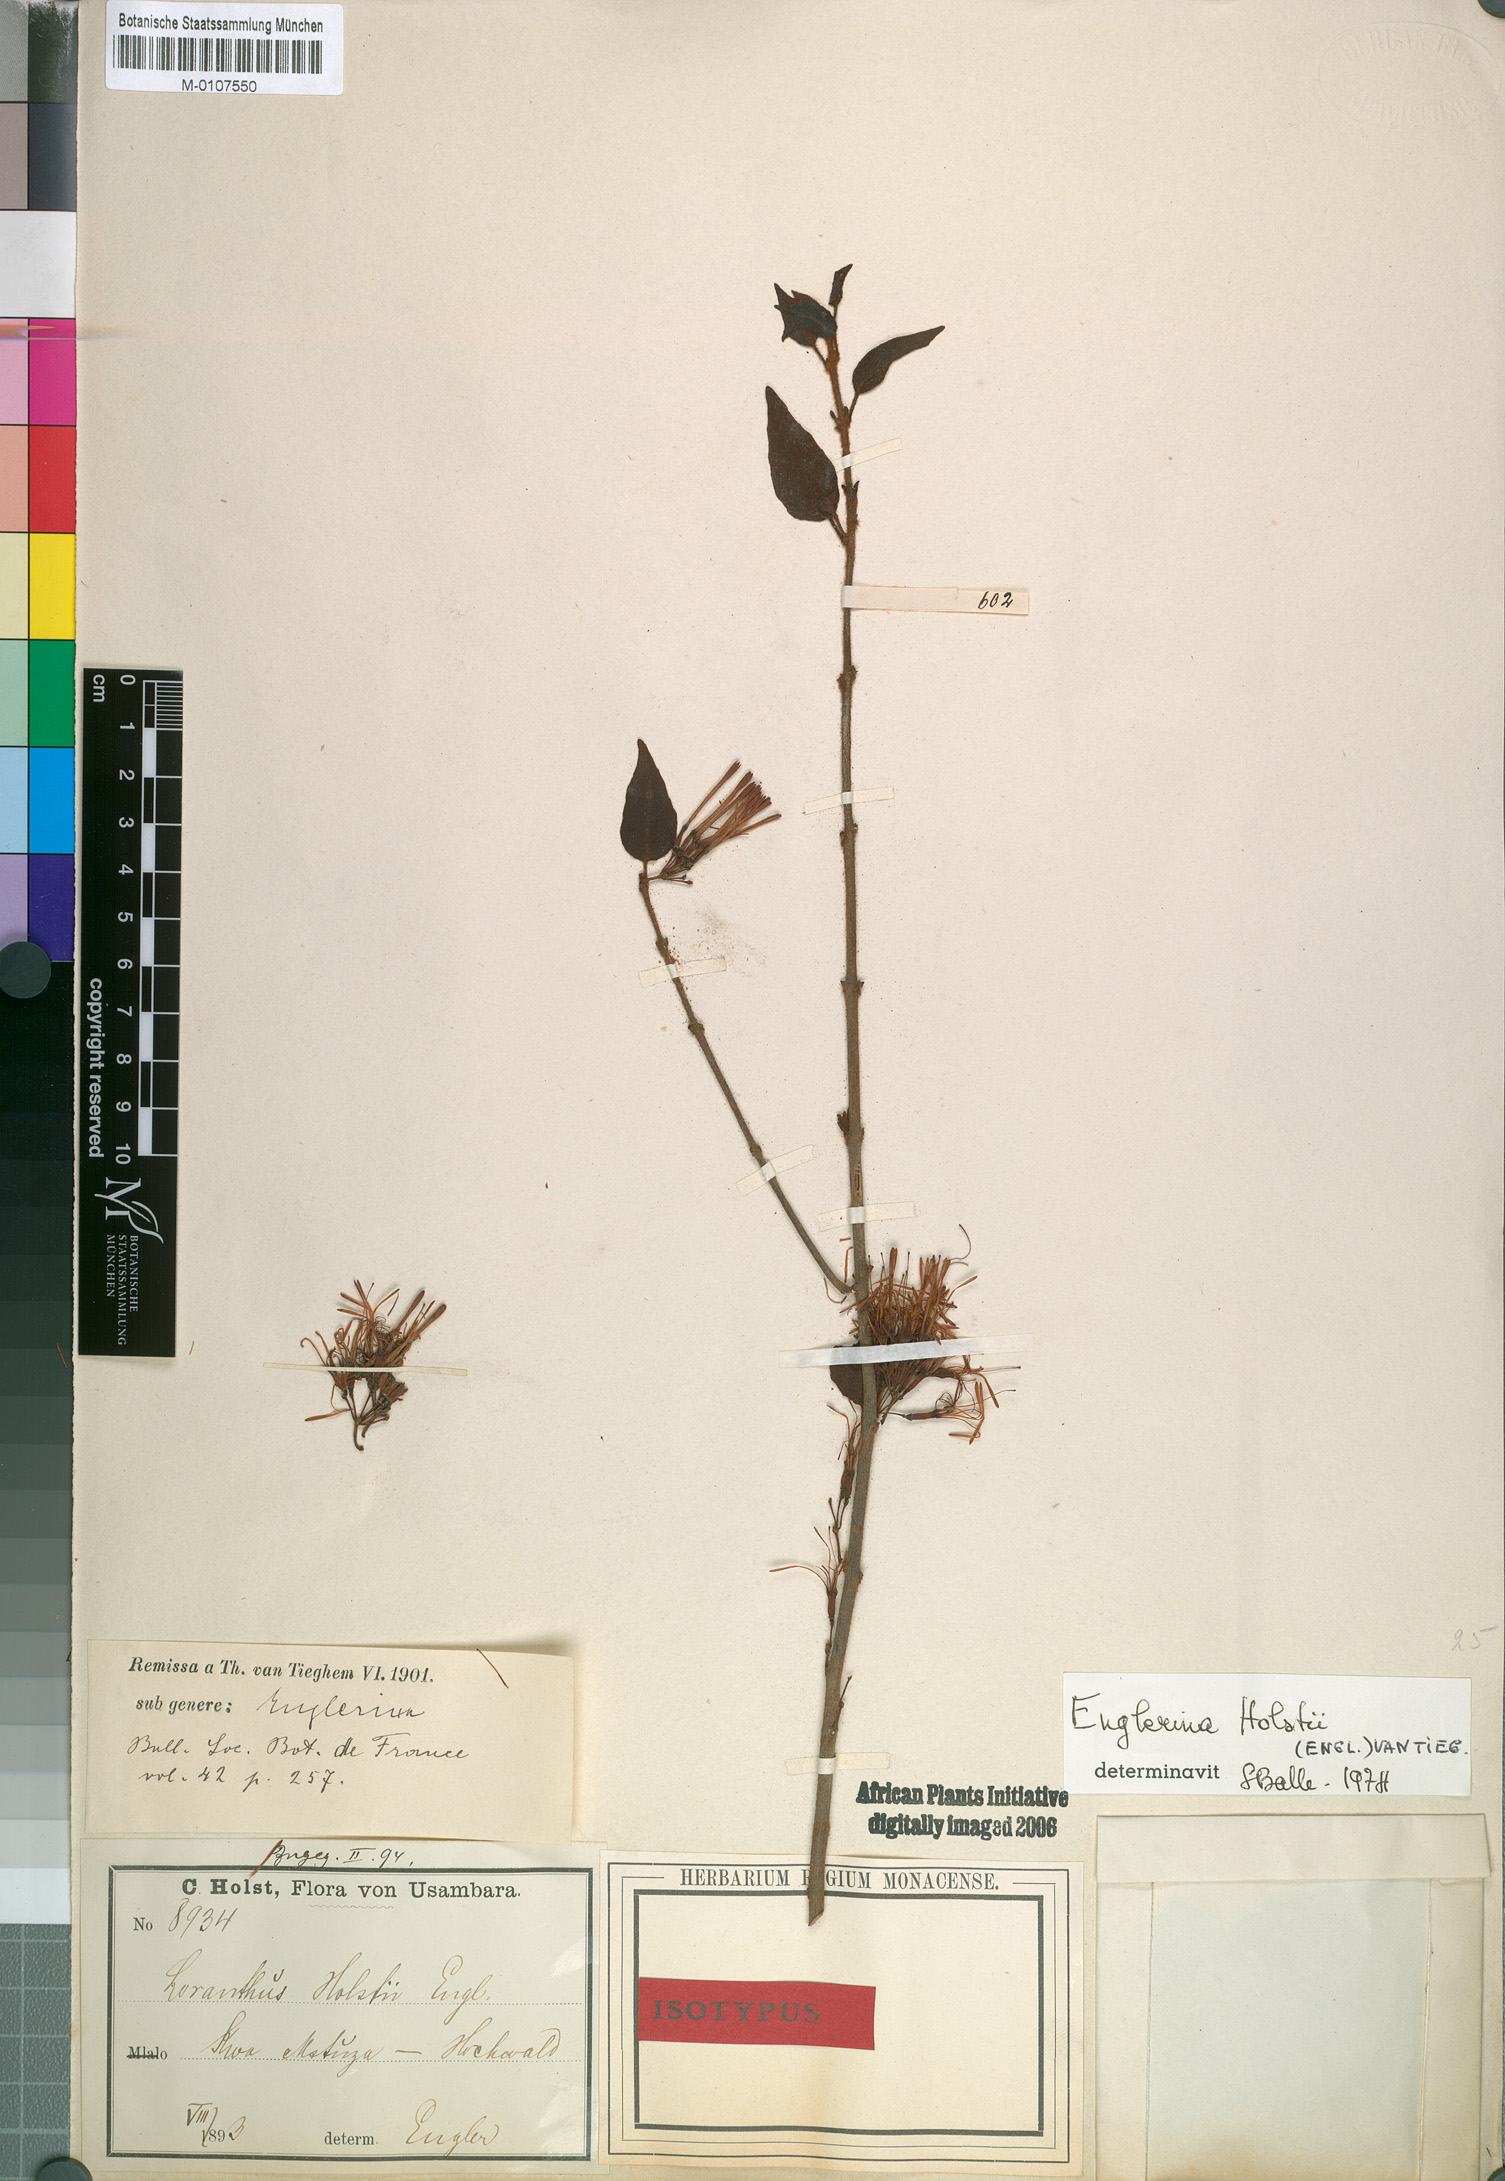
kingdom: Plantae
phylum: Tracheophyta
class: Magnoliopsida
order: Santalales
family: Loranthaceae
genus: Englerina
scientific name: Englerina holstii
